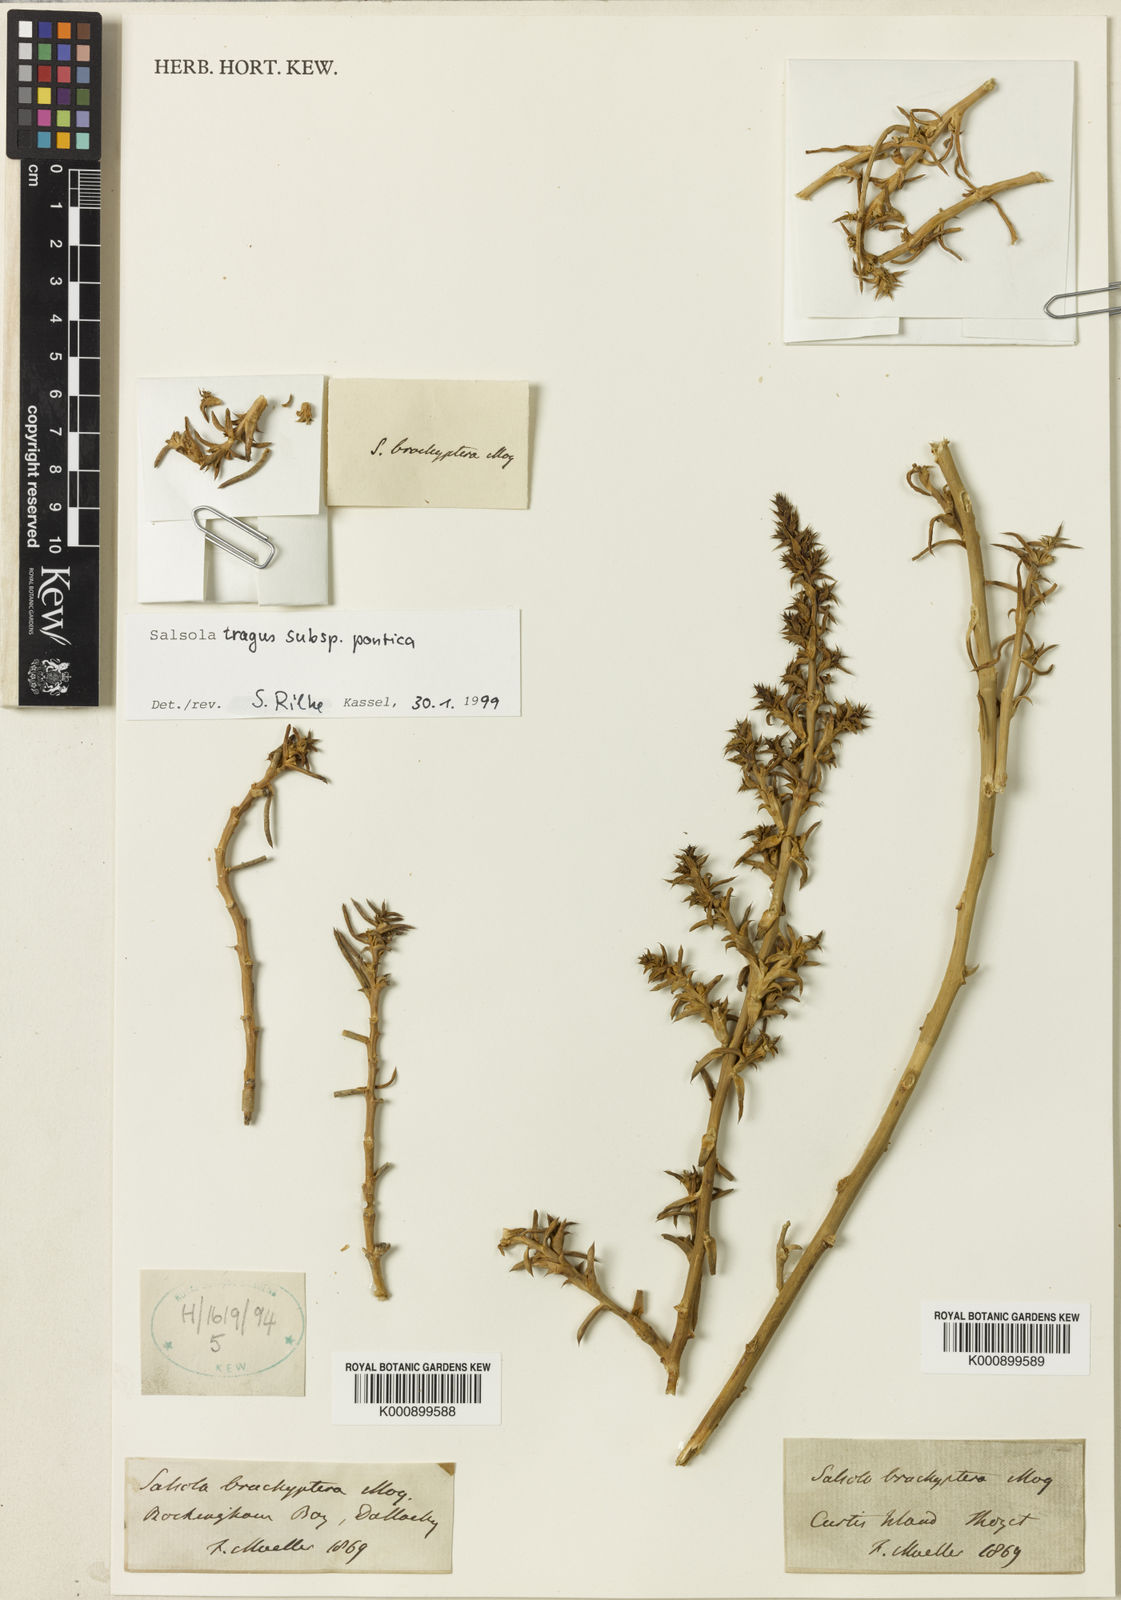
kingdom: Plantae
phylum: Tracheophyta
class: Magnoliopsida
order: Caryophyllales
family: Amaranthaceae
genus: Salsola
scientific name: Salsola kali
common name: Saltwort
